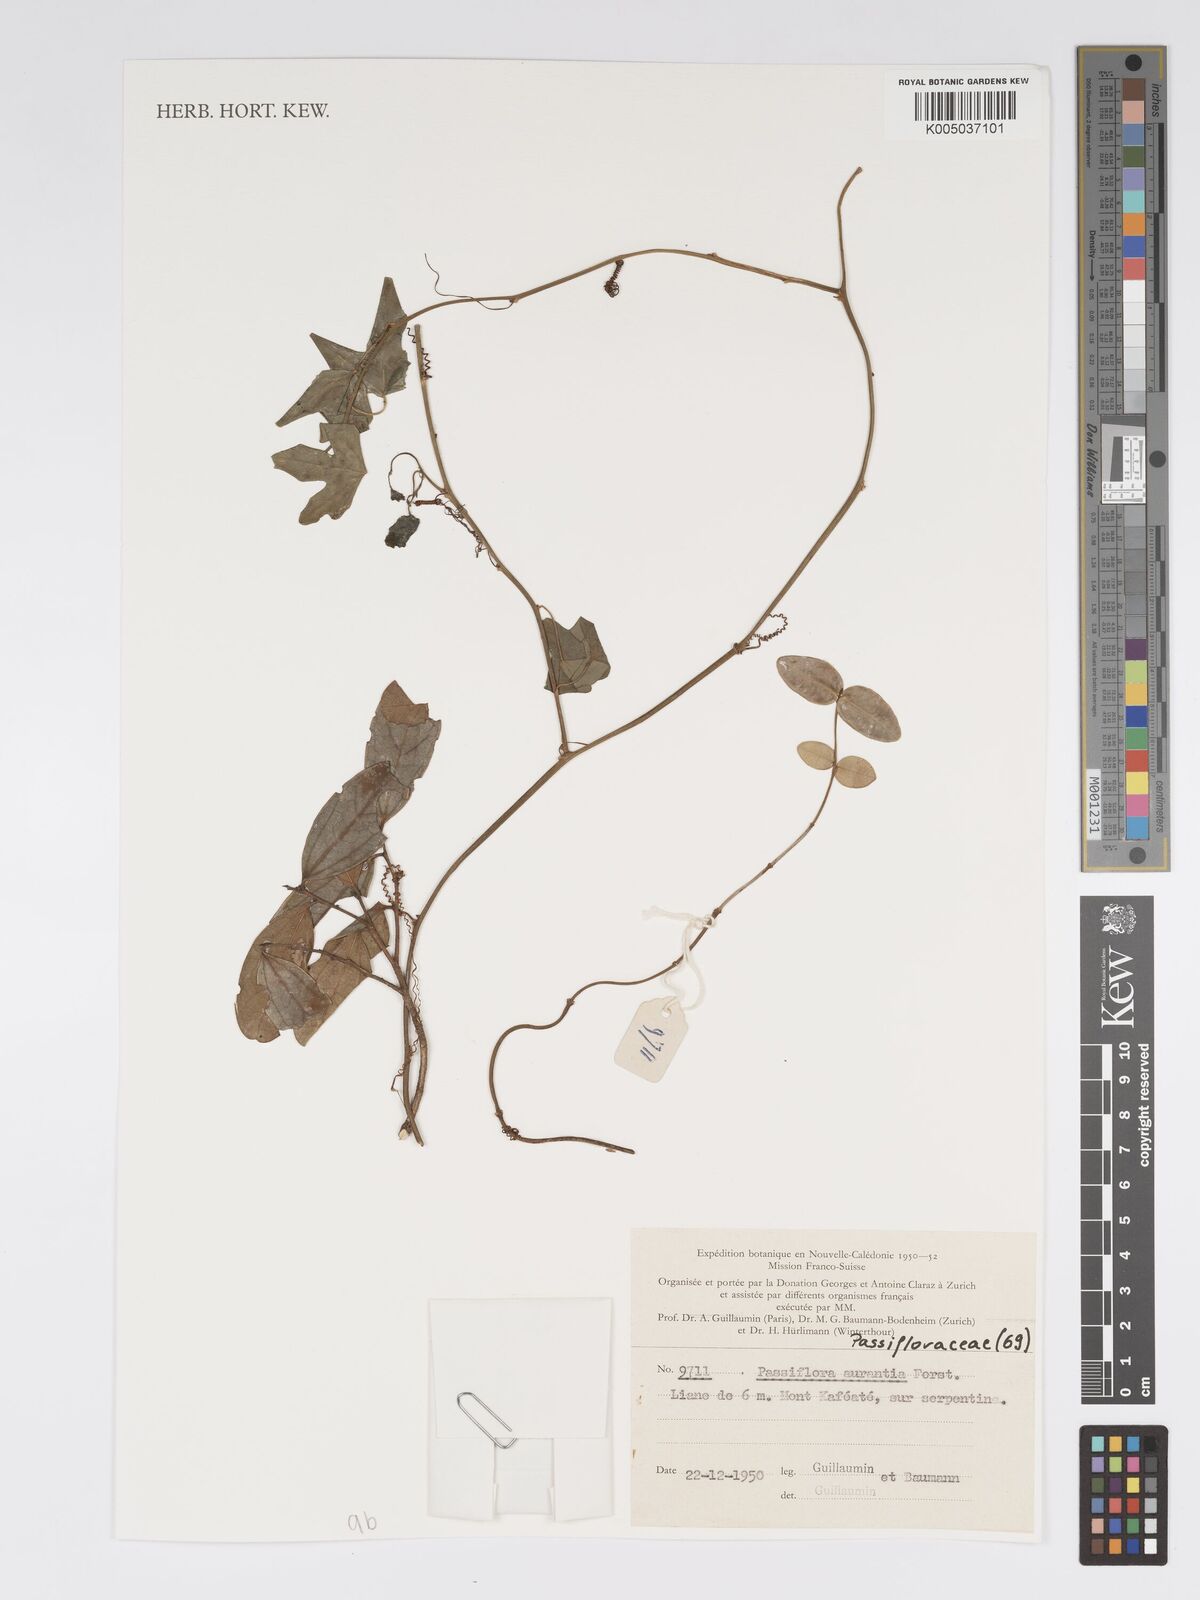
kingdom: Plantae
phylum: Tracheophyta
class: Magnoliopsida
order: Malpighiales
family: Passifloraceae
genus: Passiflora
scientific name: Passiflora aurantia
